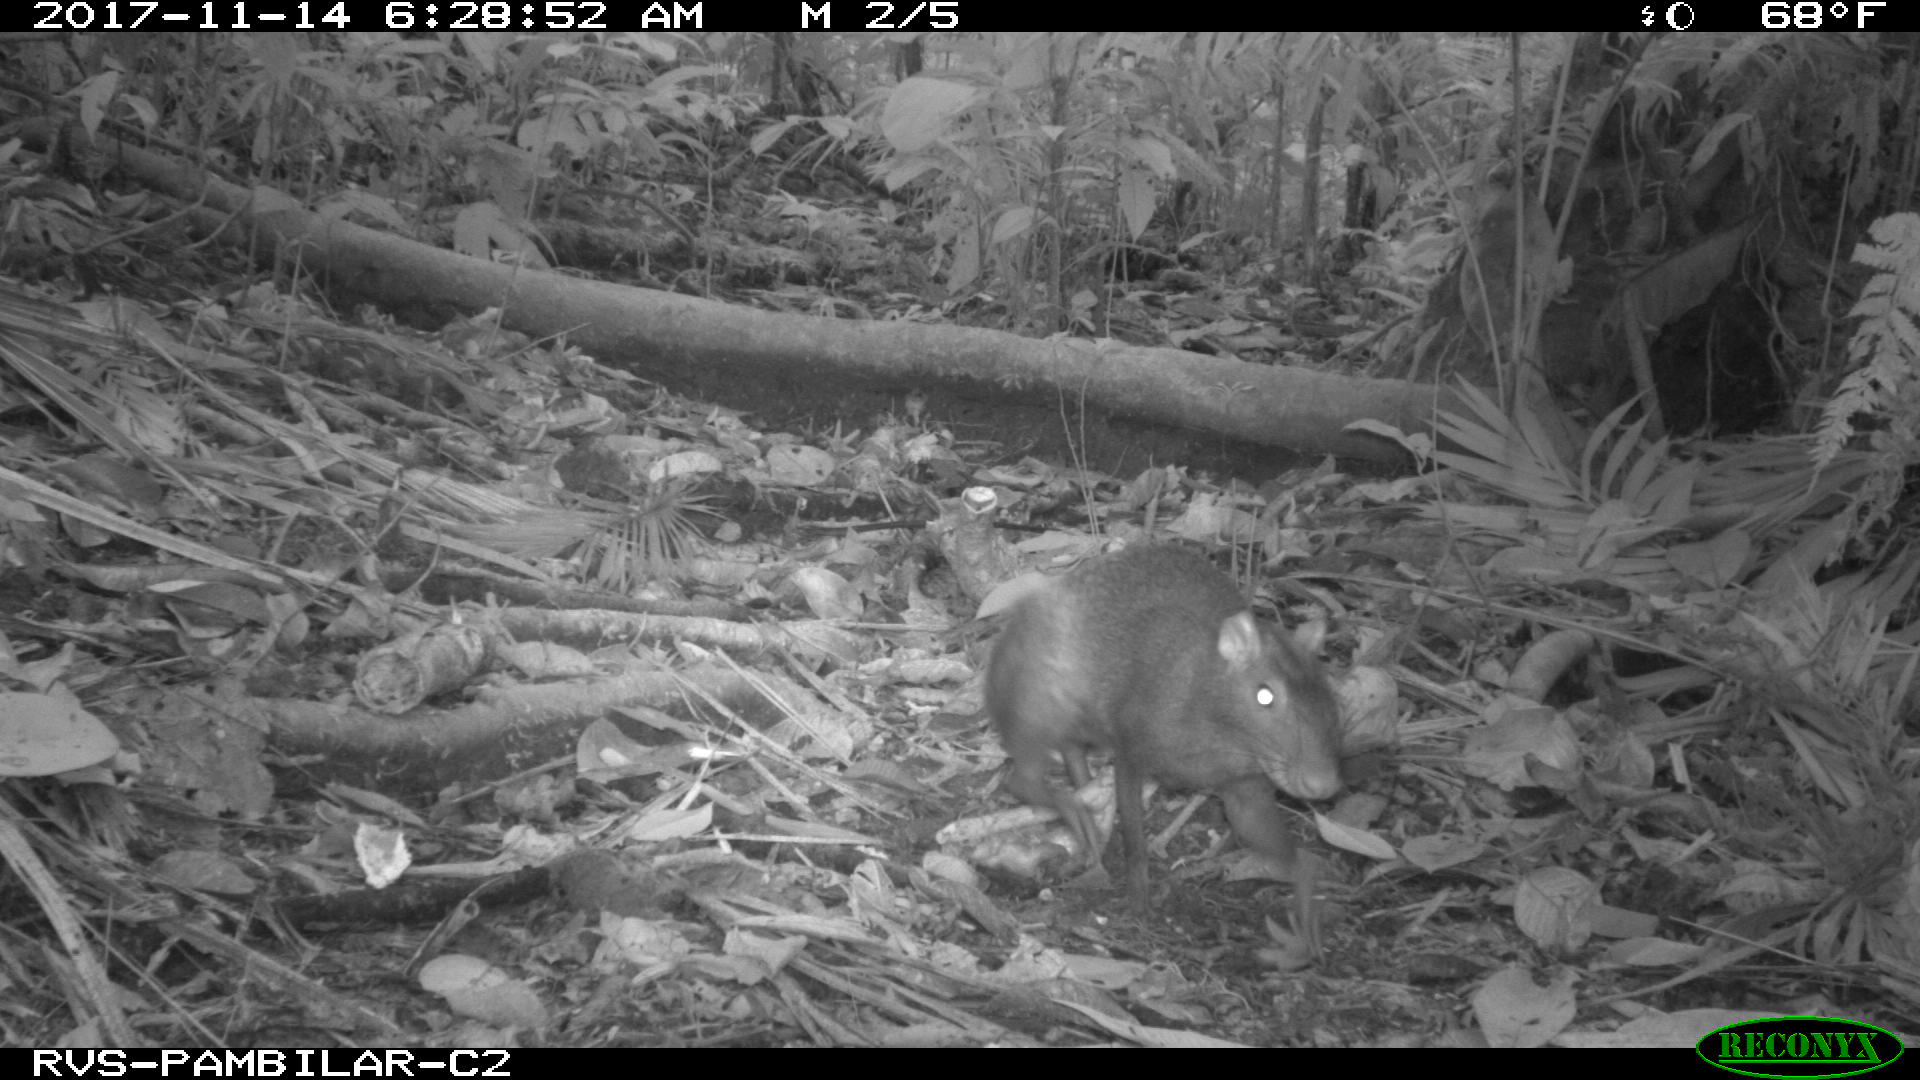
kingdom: Animalia
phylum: Chordata
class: Mammalia
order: Rodentia
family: Dasyproctidae
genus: Dasyprocta
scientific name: Dasyprocta punctata
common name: Central american agouti
